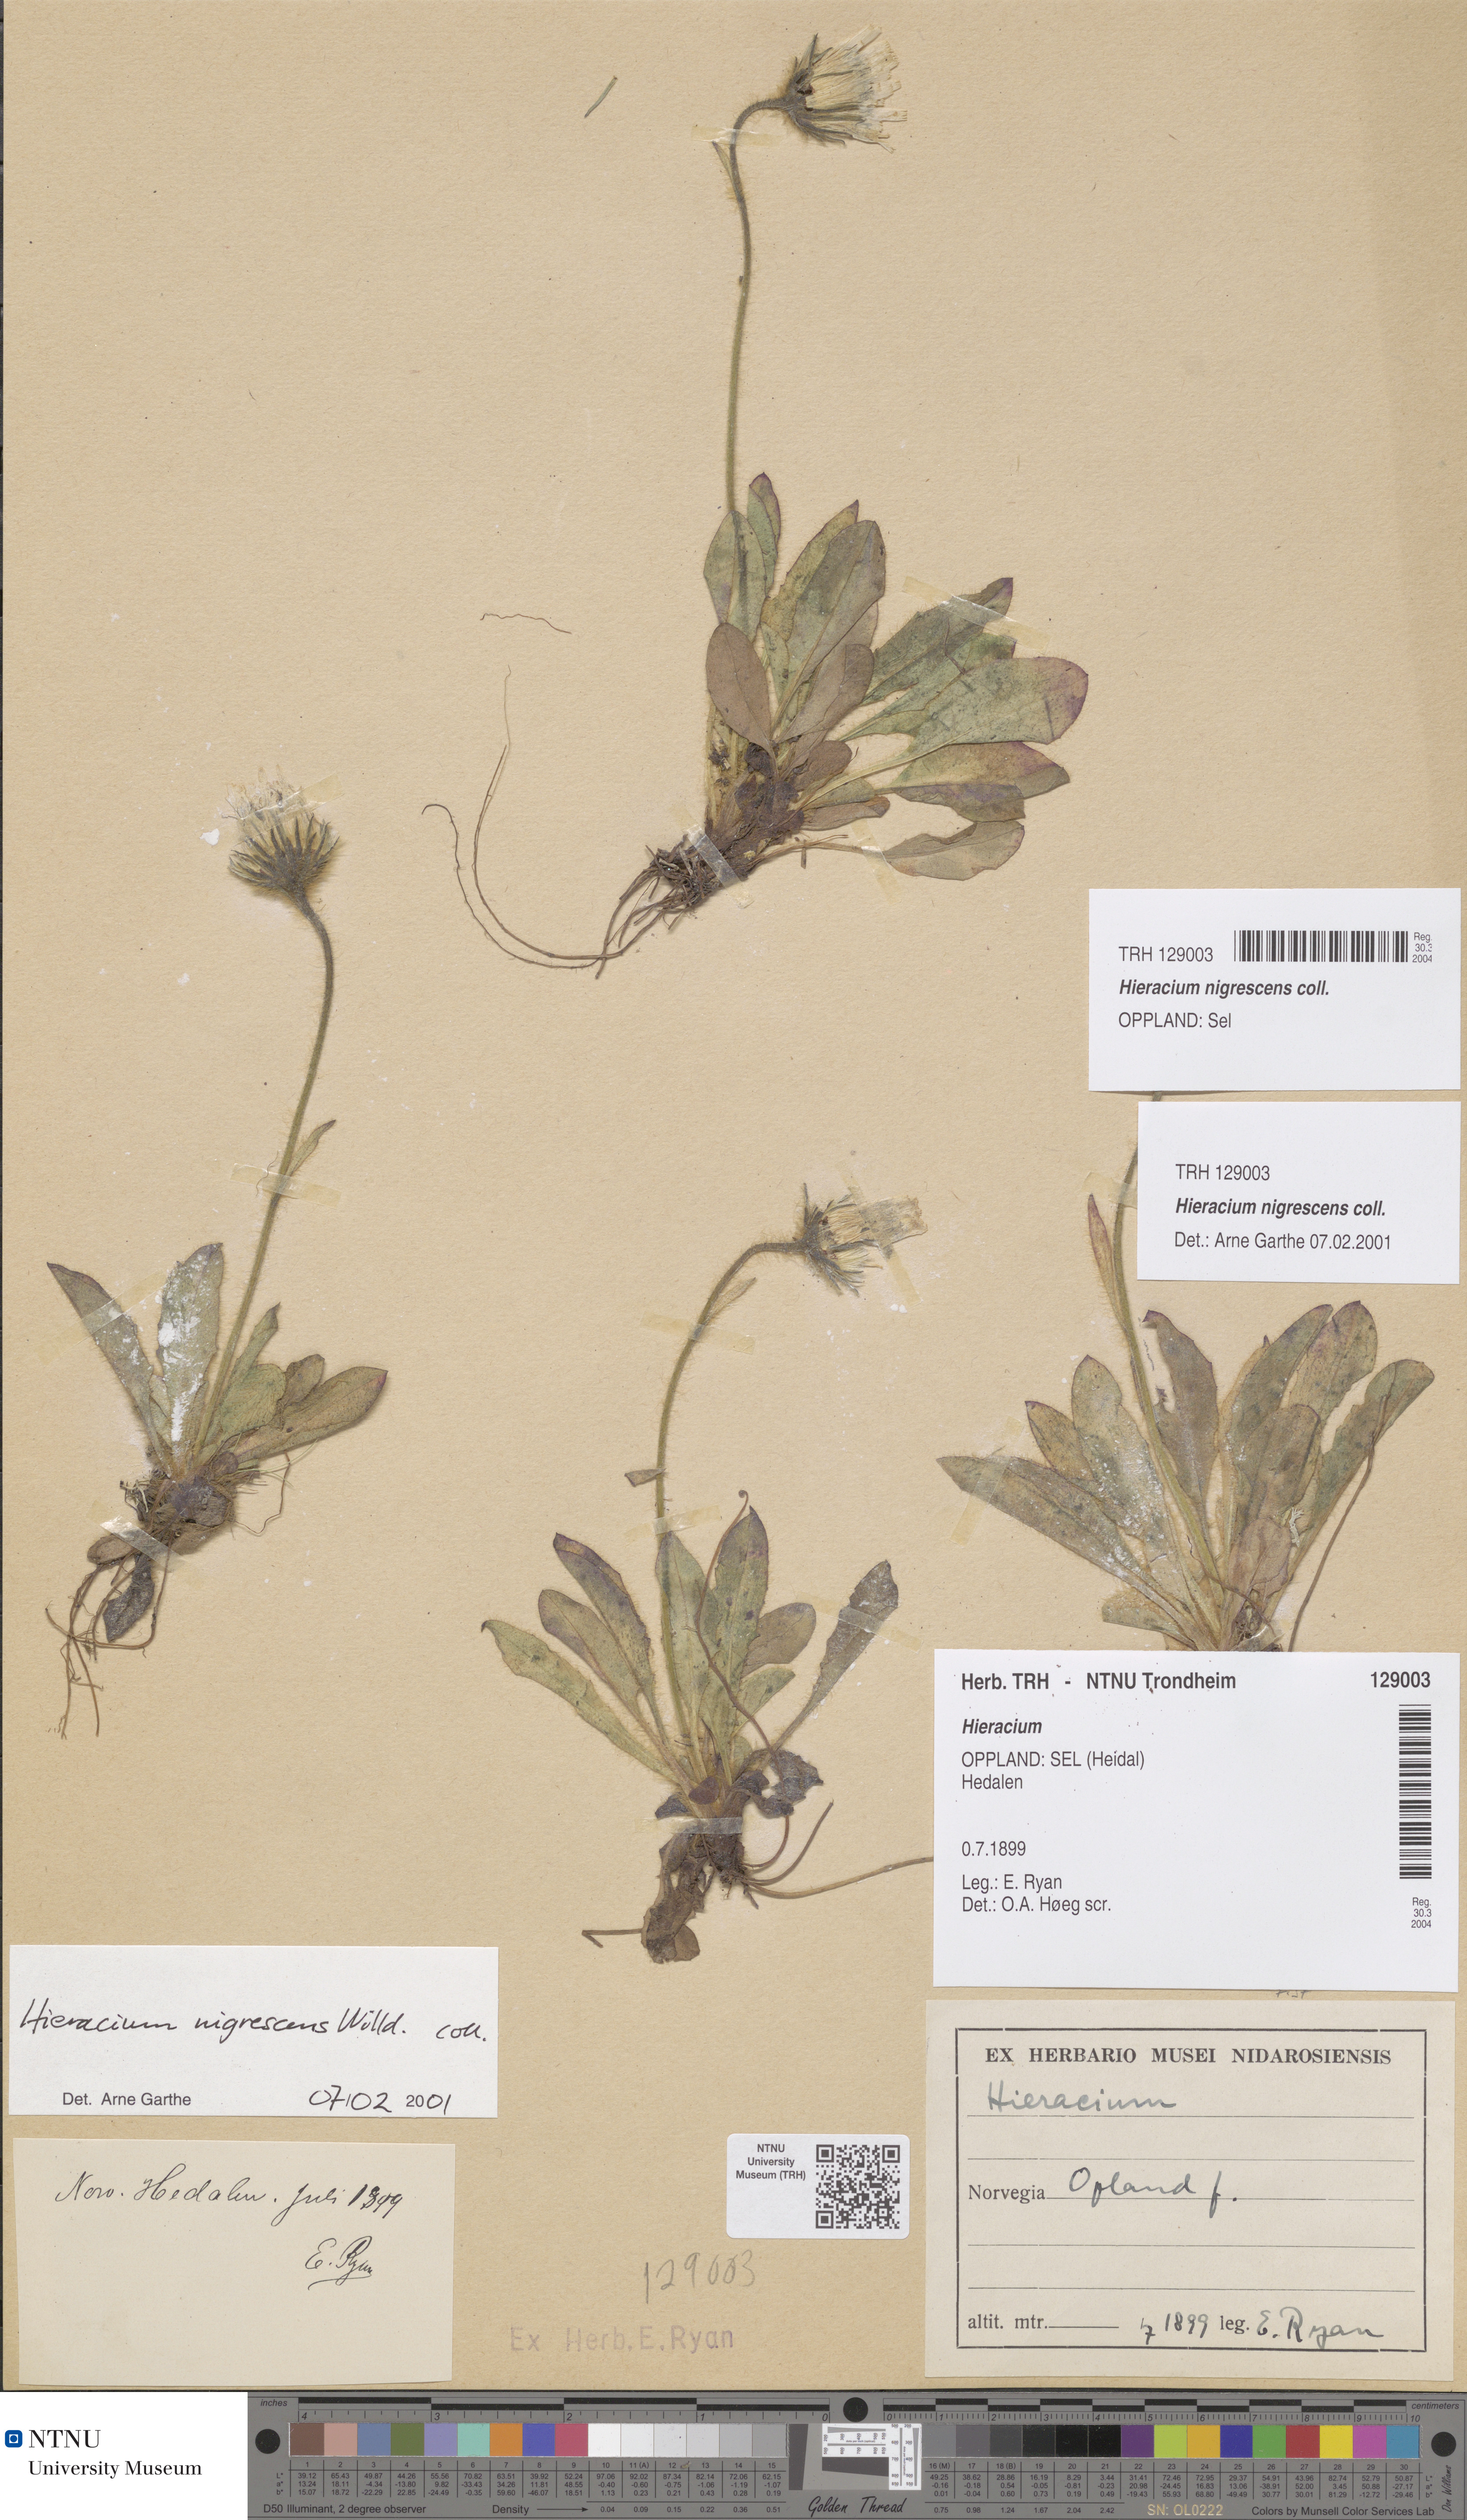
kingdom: Plantae
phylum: Tracheophyta
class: Magnoliopsida
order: Asterales
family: Asteraceae
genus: Hieracium
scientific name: Hieracium nigrescens
